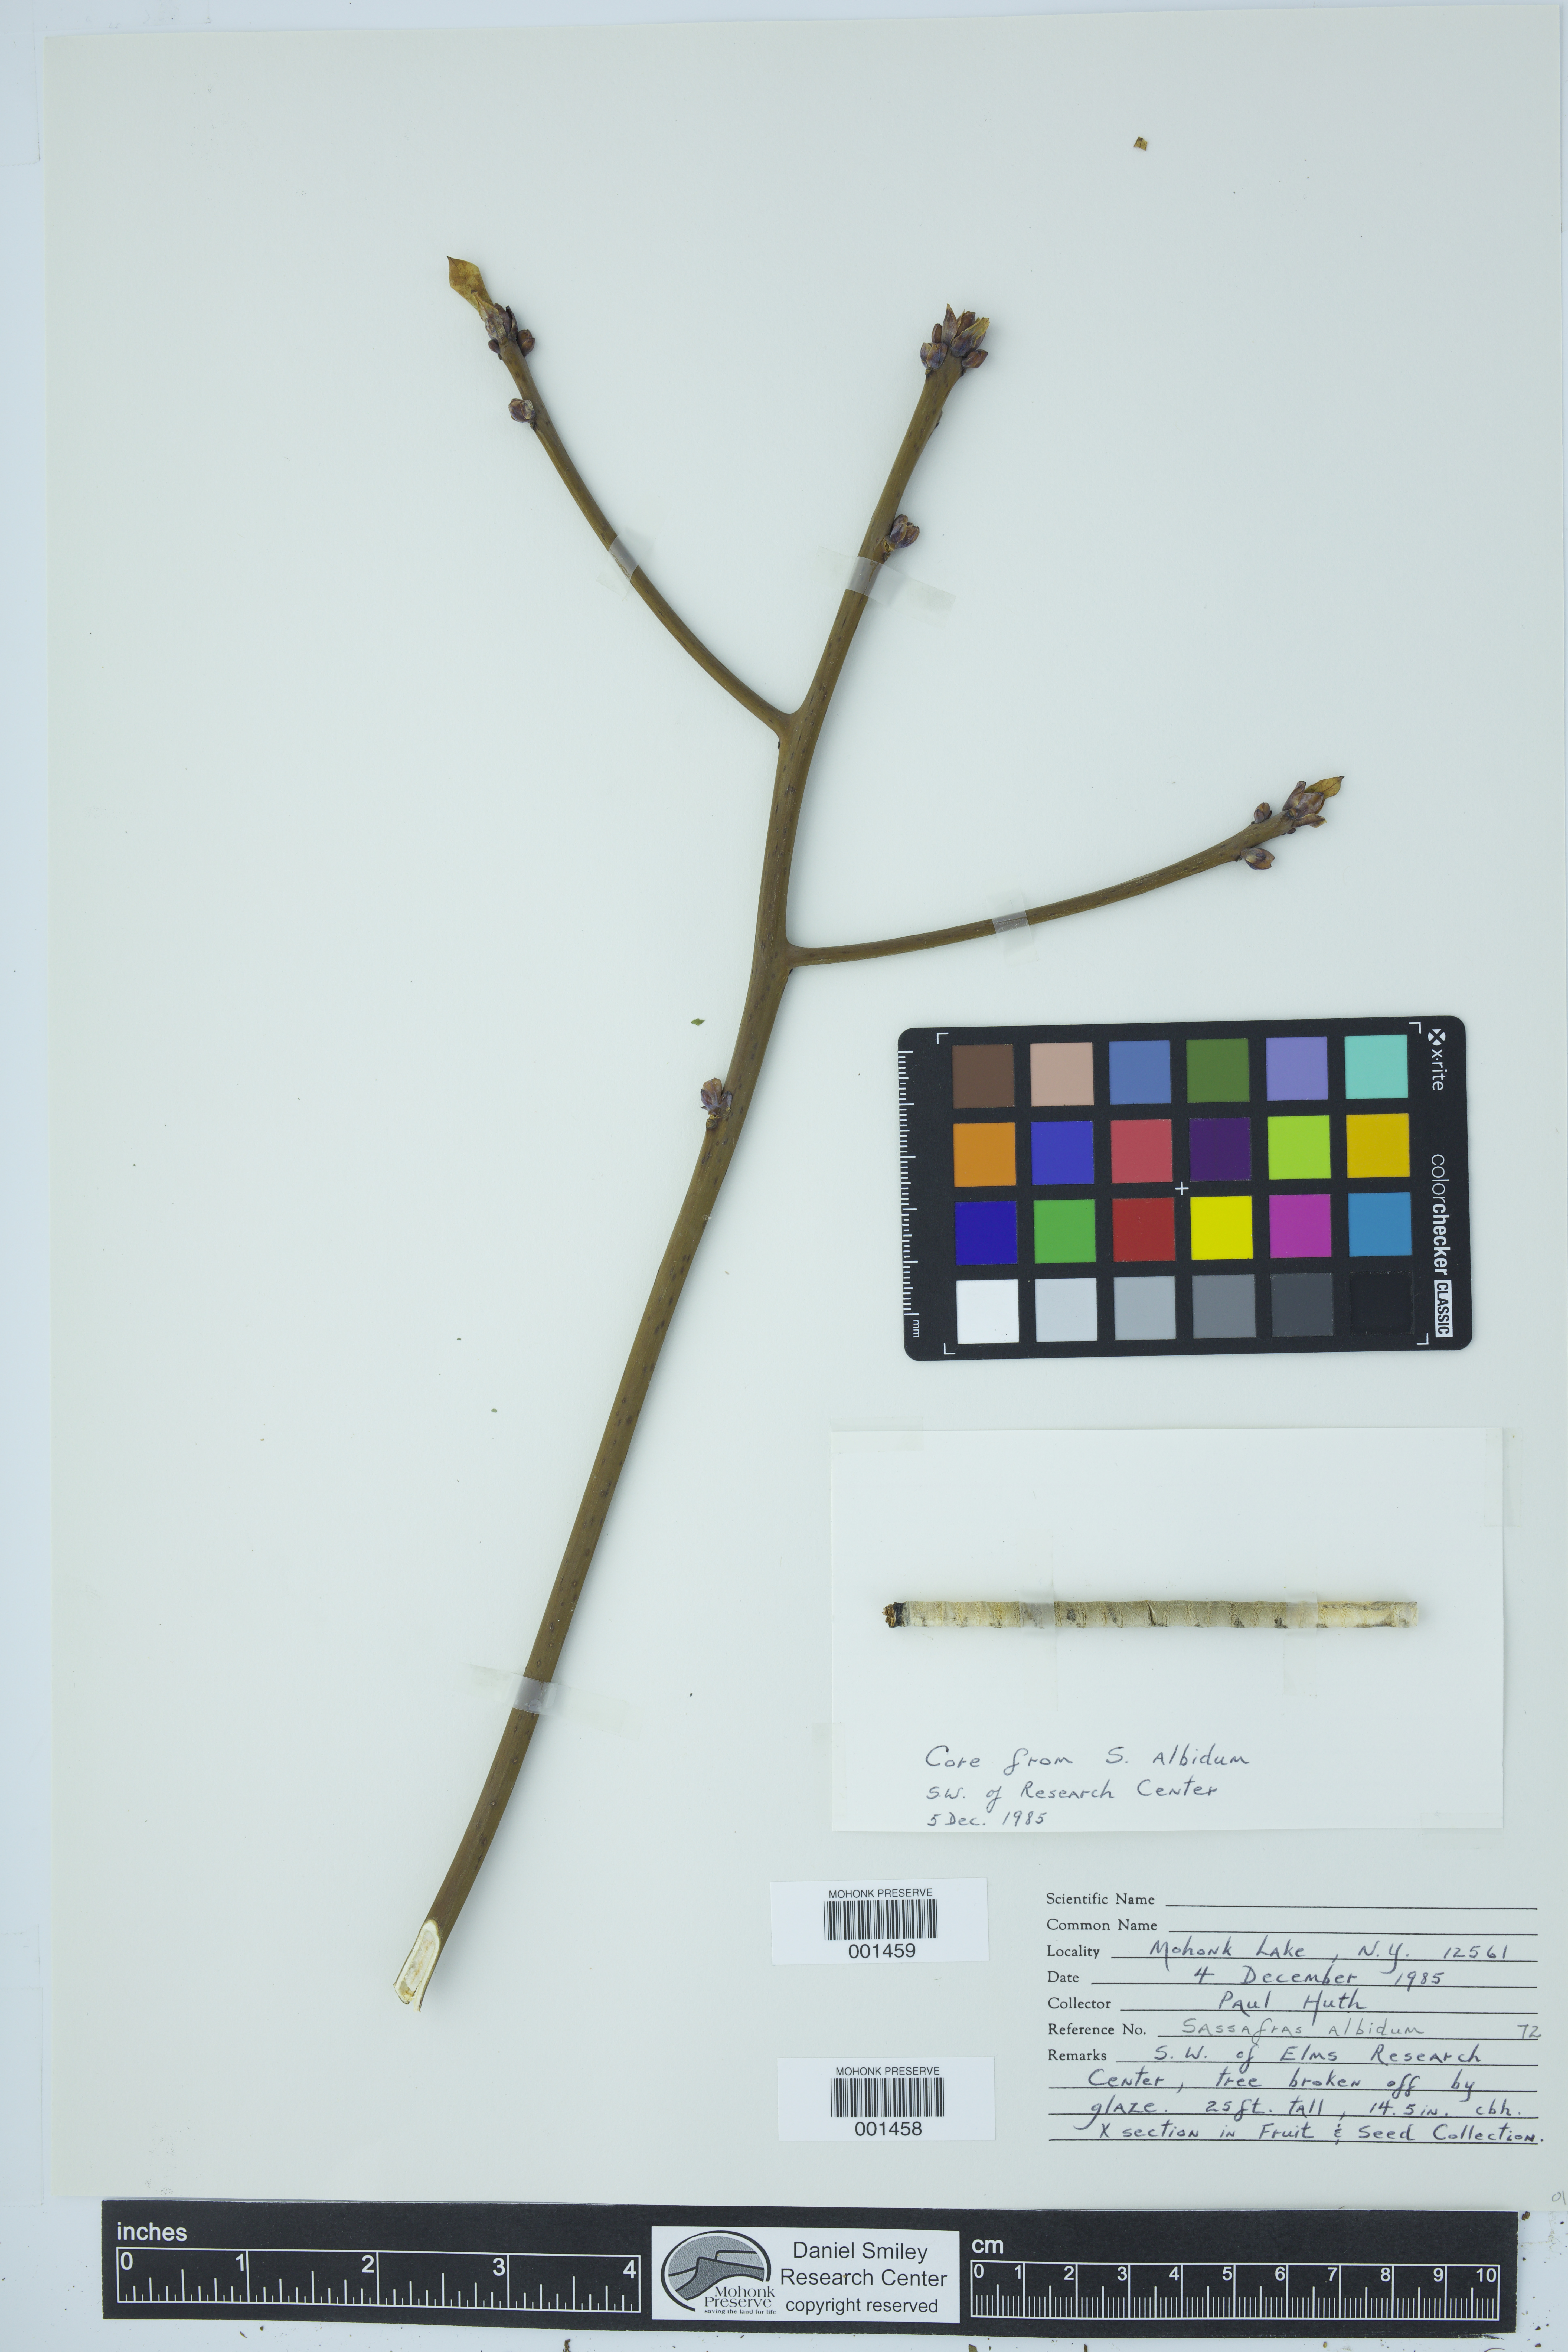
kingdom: Plantae
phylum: Tracheophyta
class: Magnoliopsida
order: Laurales
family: Lauraceae
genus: Sassafras
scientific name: Sassafras albidum
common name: Sassafras
